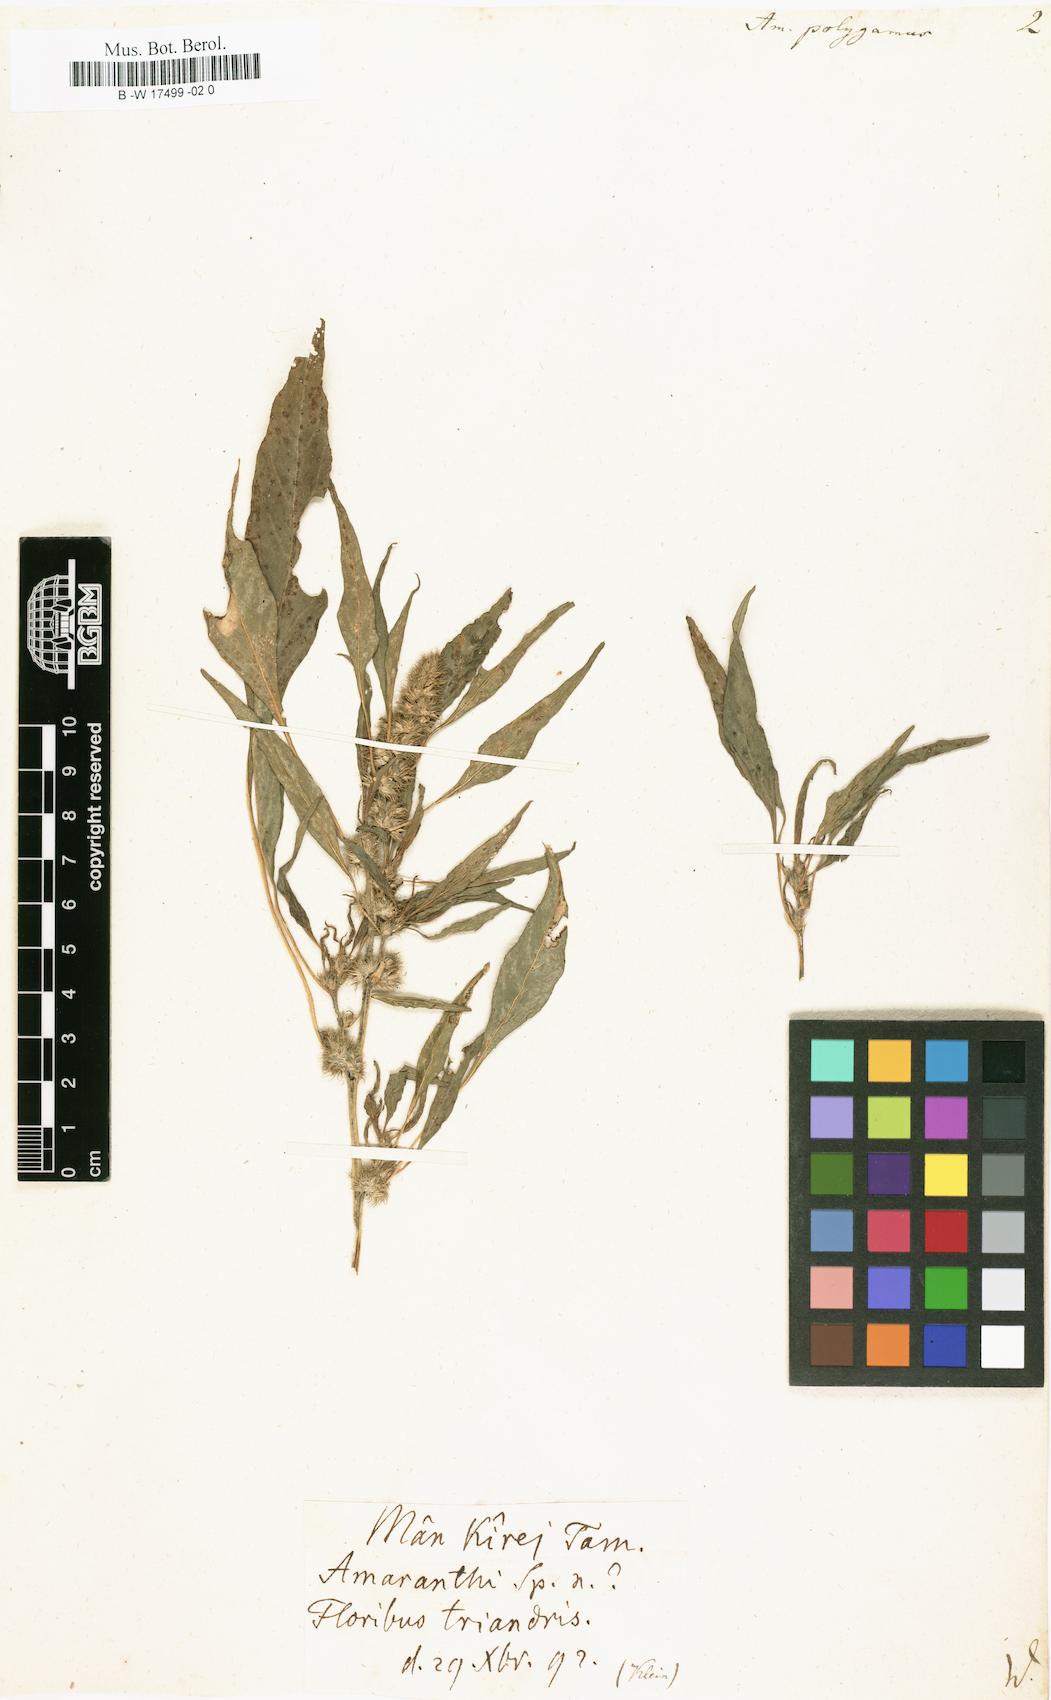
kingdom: Plantae
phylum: Tracheophyta
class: Magnoliopsida
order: Caryophyllales
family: Amaranthaceae
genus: Amaranthus
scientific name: Amaranthus tricolor
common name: Joseph's-coat
